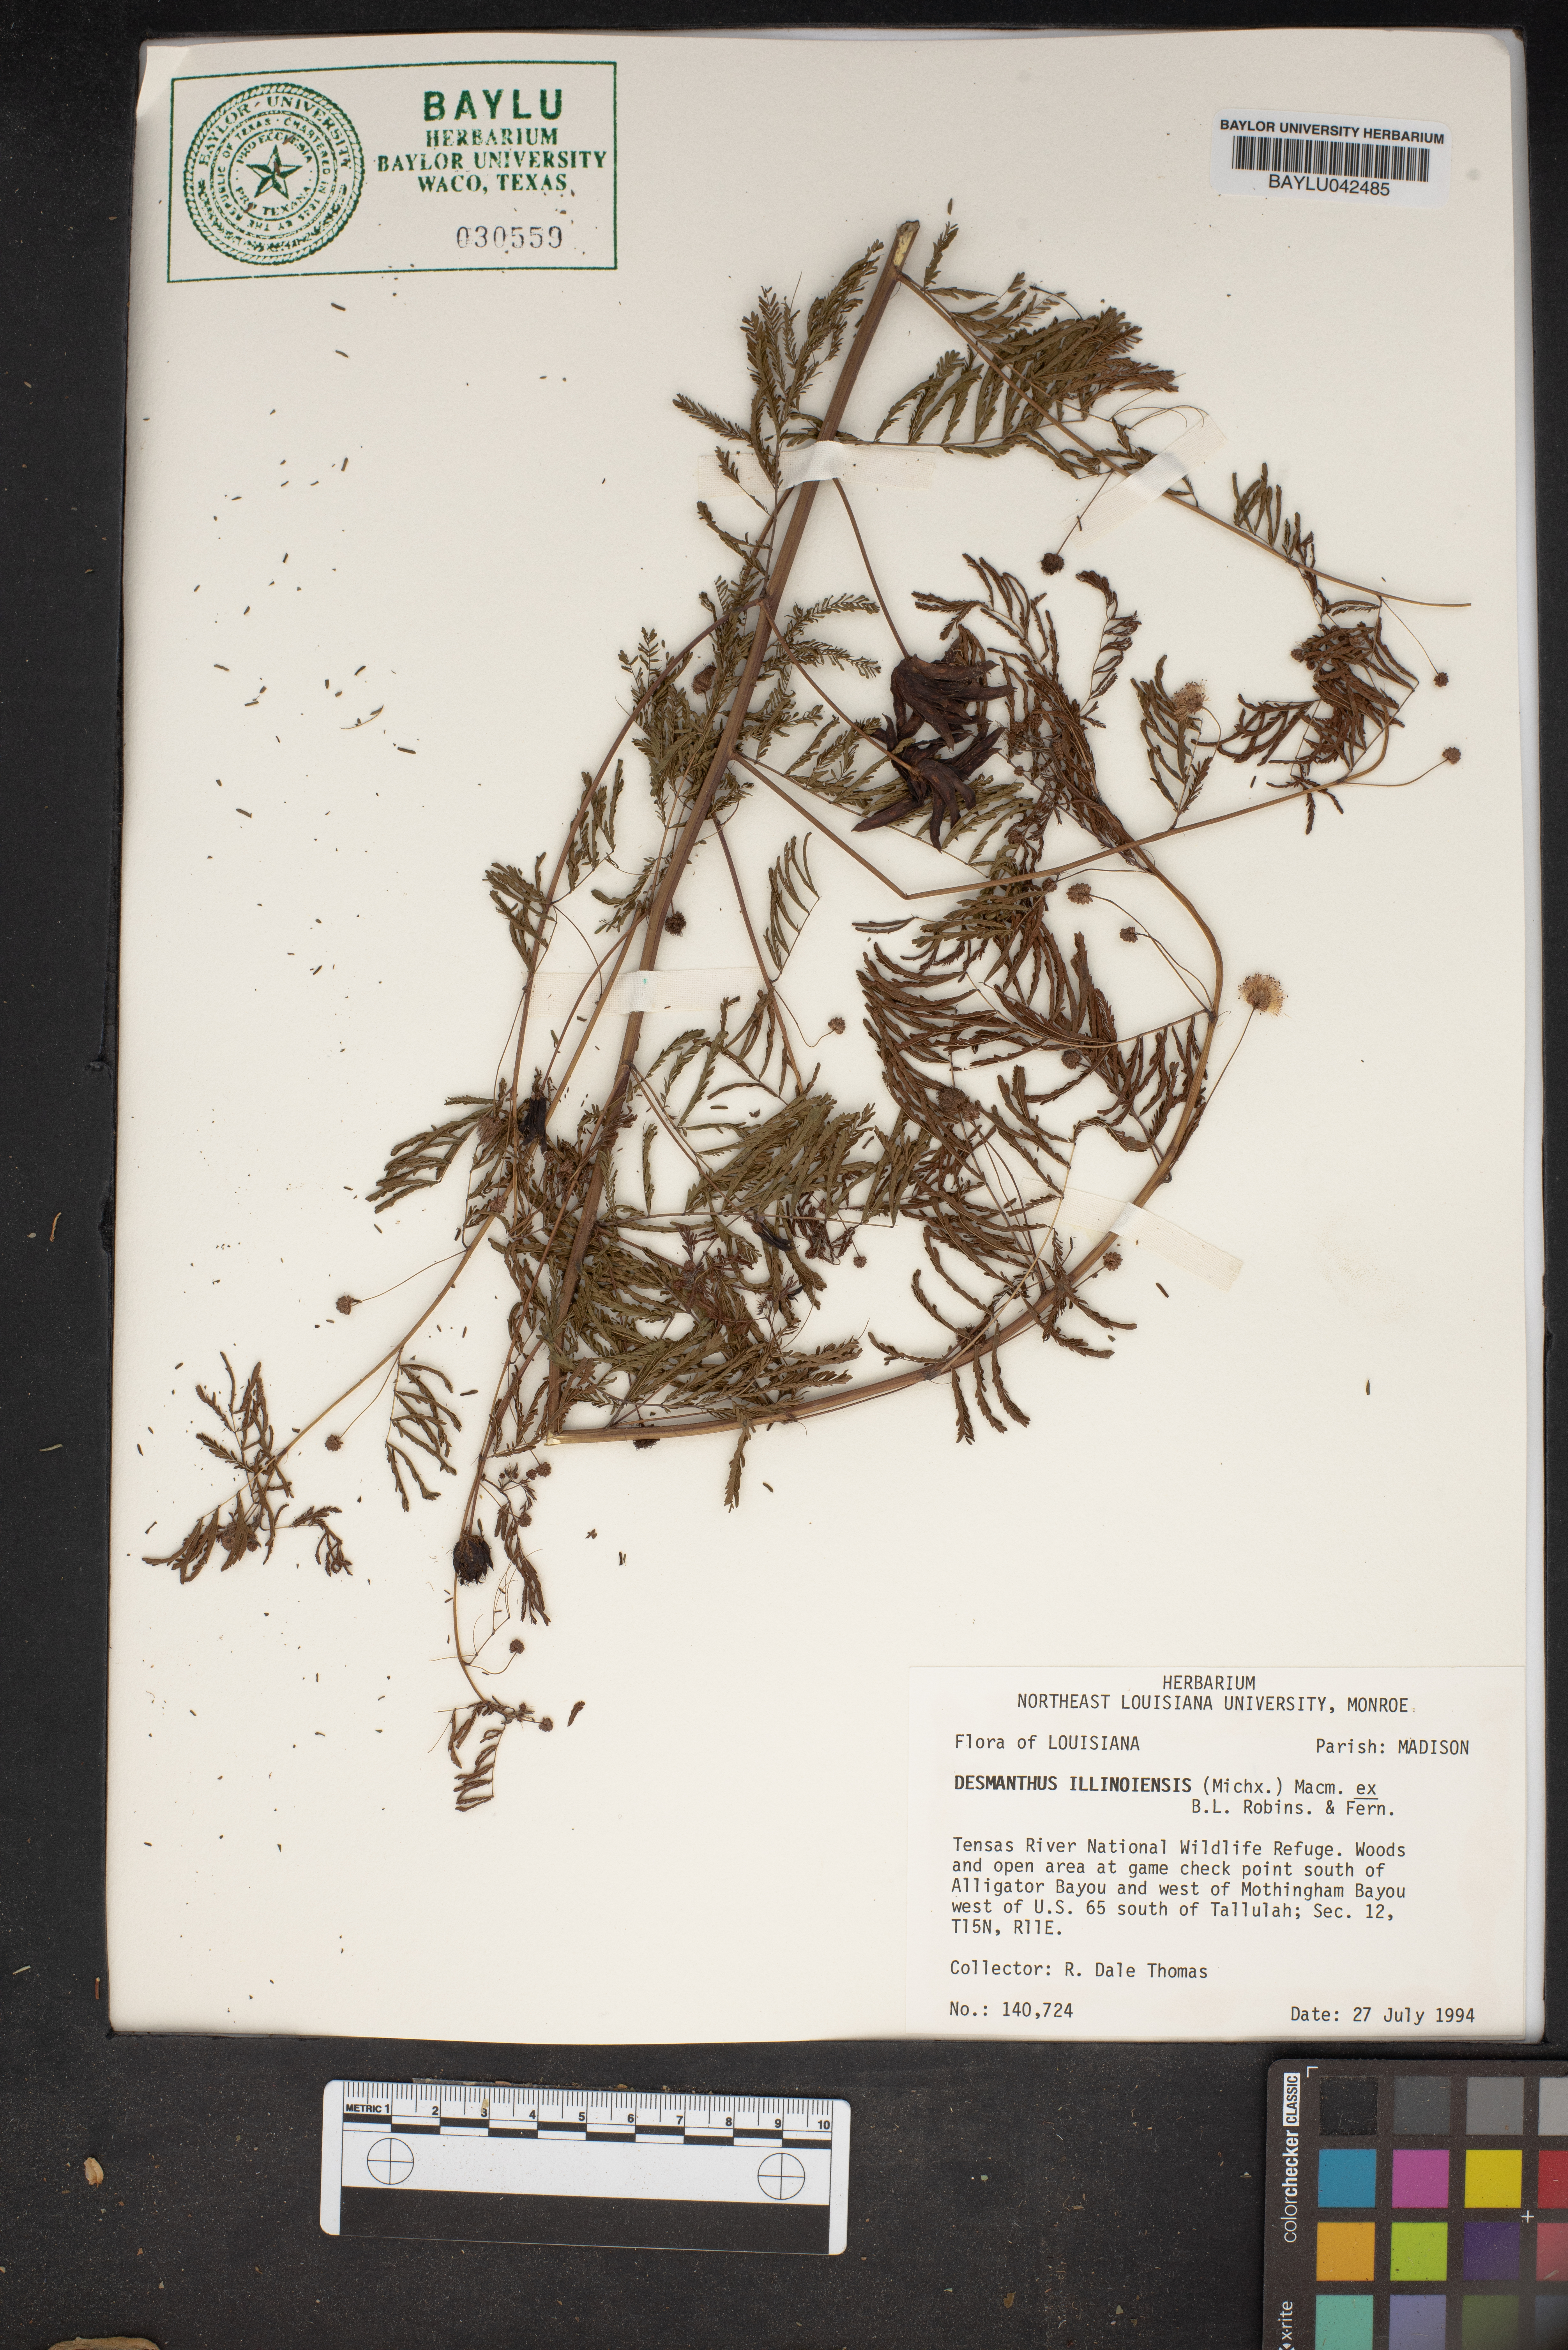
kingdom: Plantae
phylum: Tracheophyta
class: Magnoliopsida
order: Fabales
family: Fabaceae
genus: Desmanthus
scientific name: Desmanthus illinoensis
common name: Illinois bundle-flower
